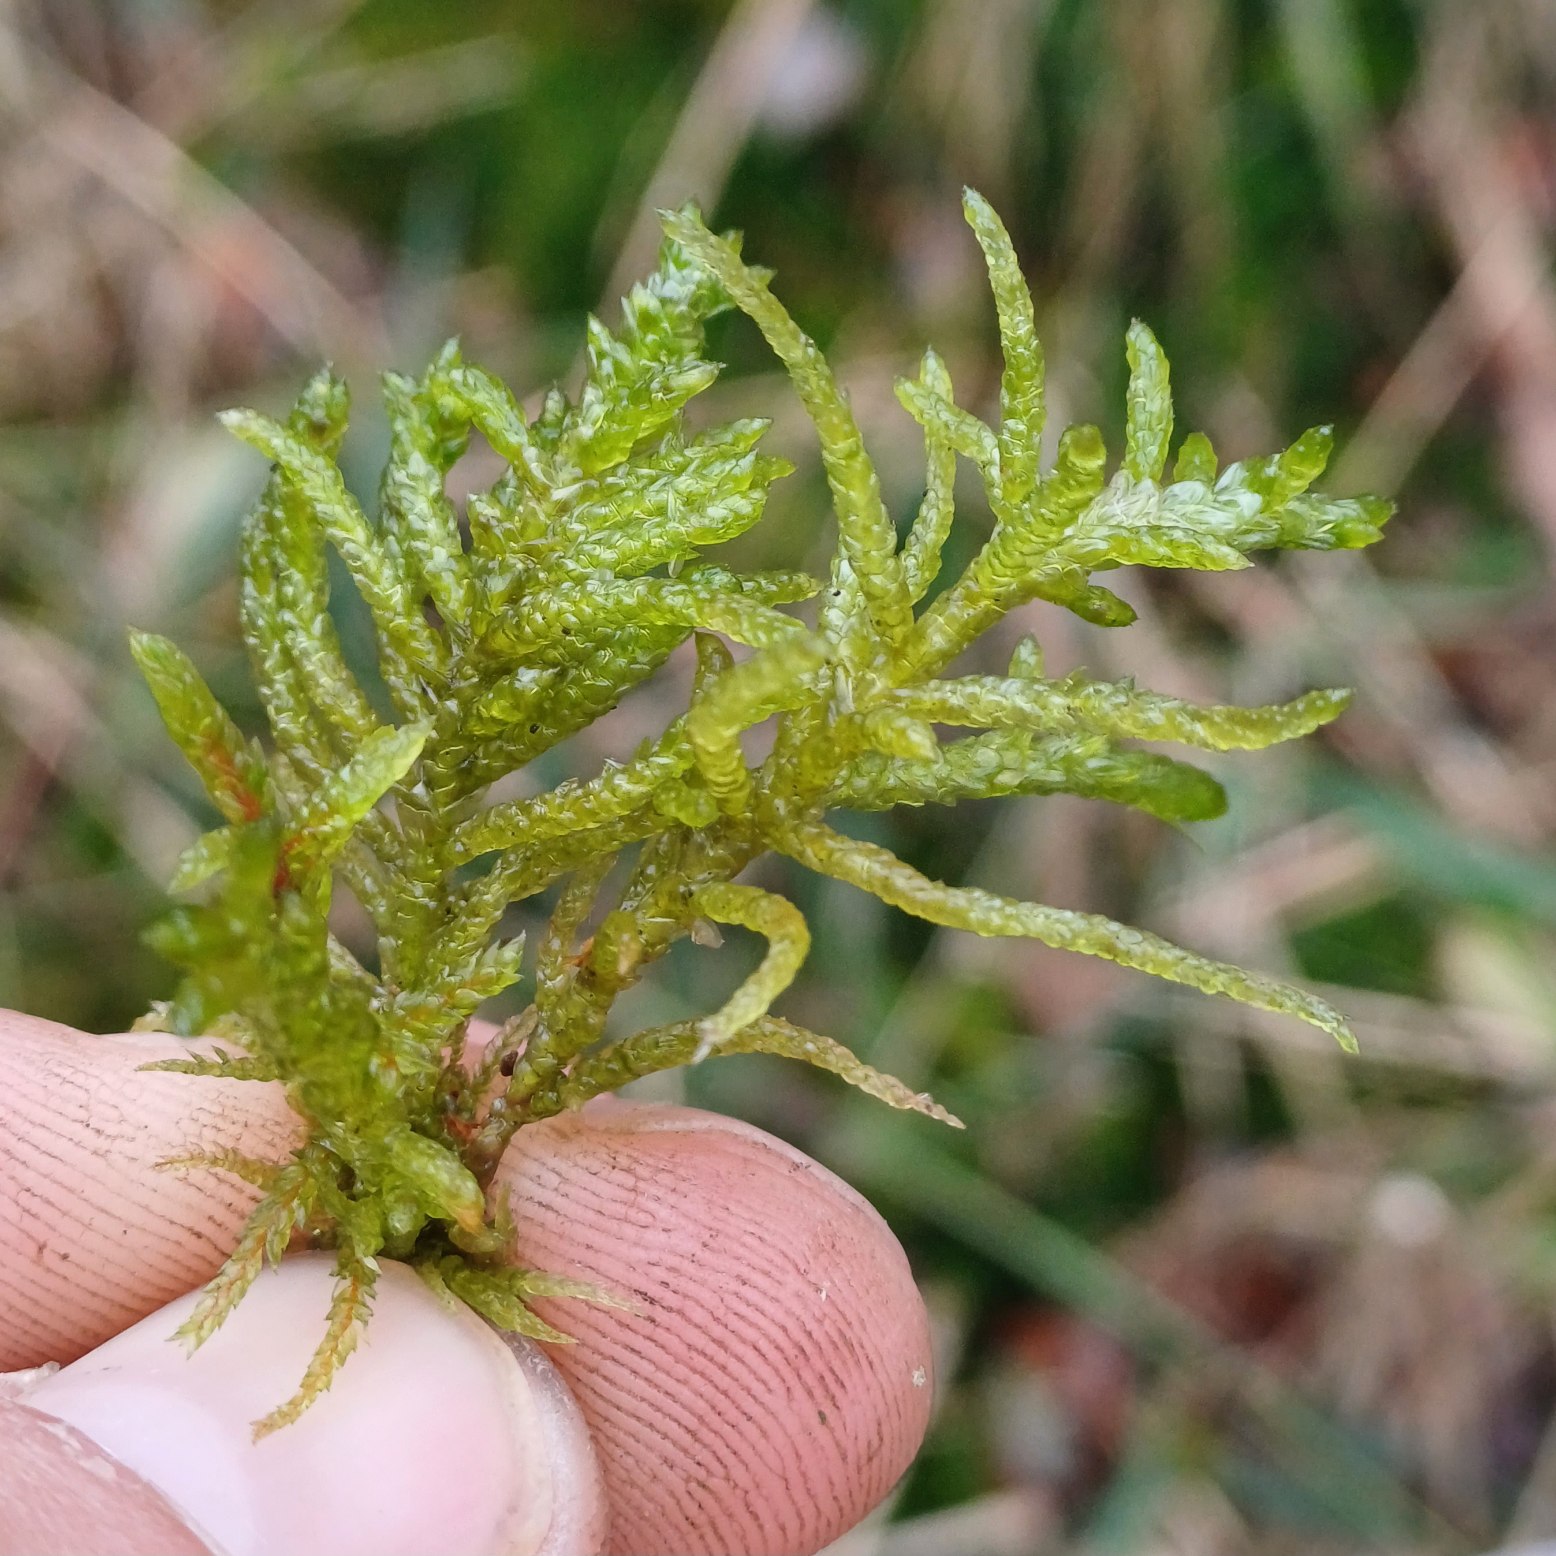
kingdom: Plantae
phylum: Bryophyta
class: Bryopsida
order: Hypnales
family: Brachytheciaceae
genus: Pseudoscleropodium
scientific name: Pseudoscleropodium purum
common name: Hulbladet fedtmos
